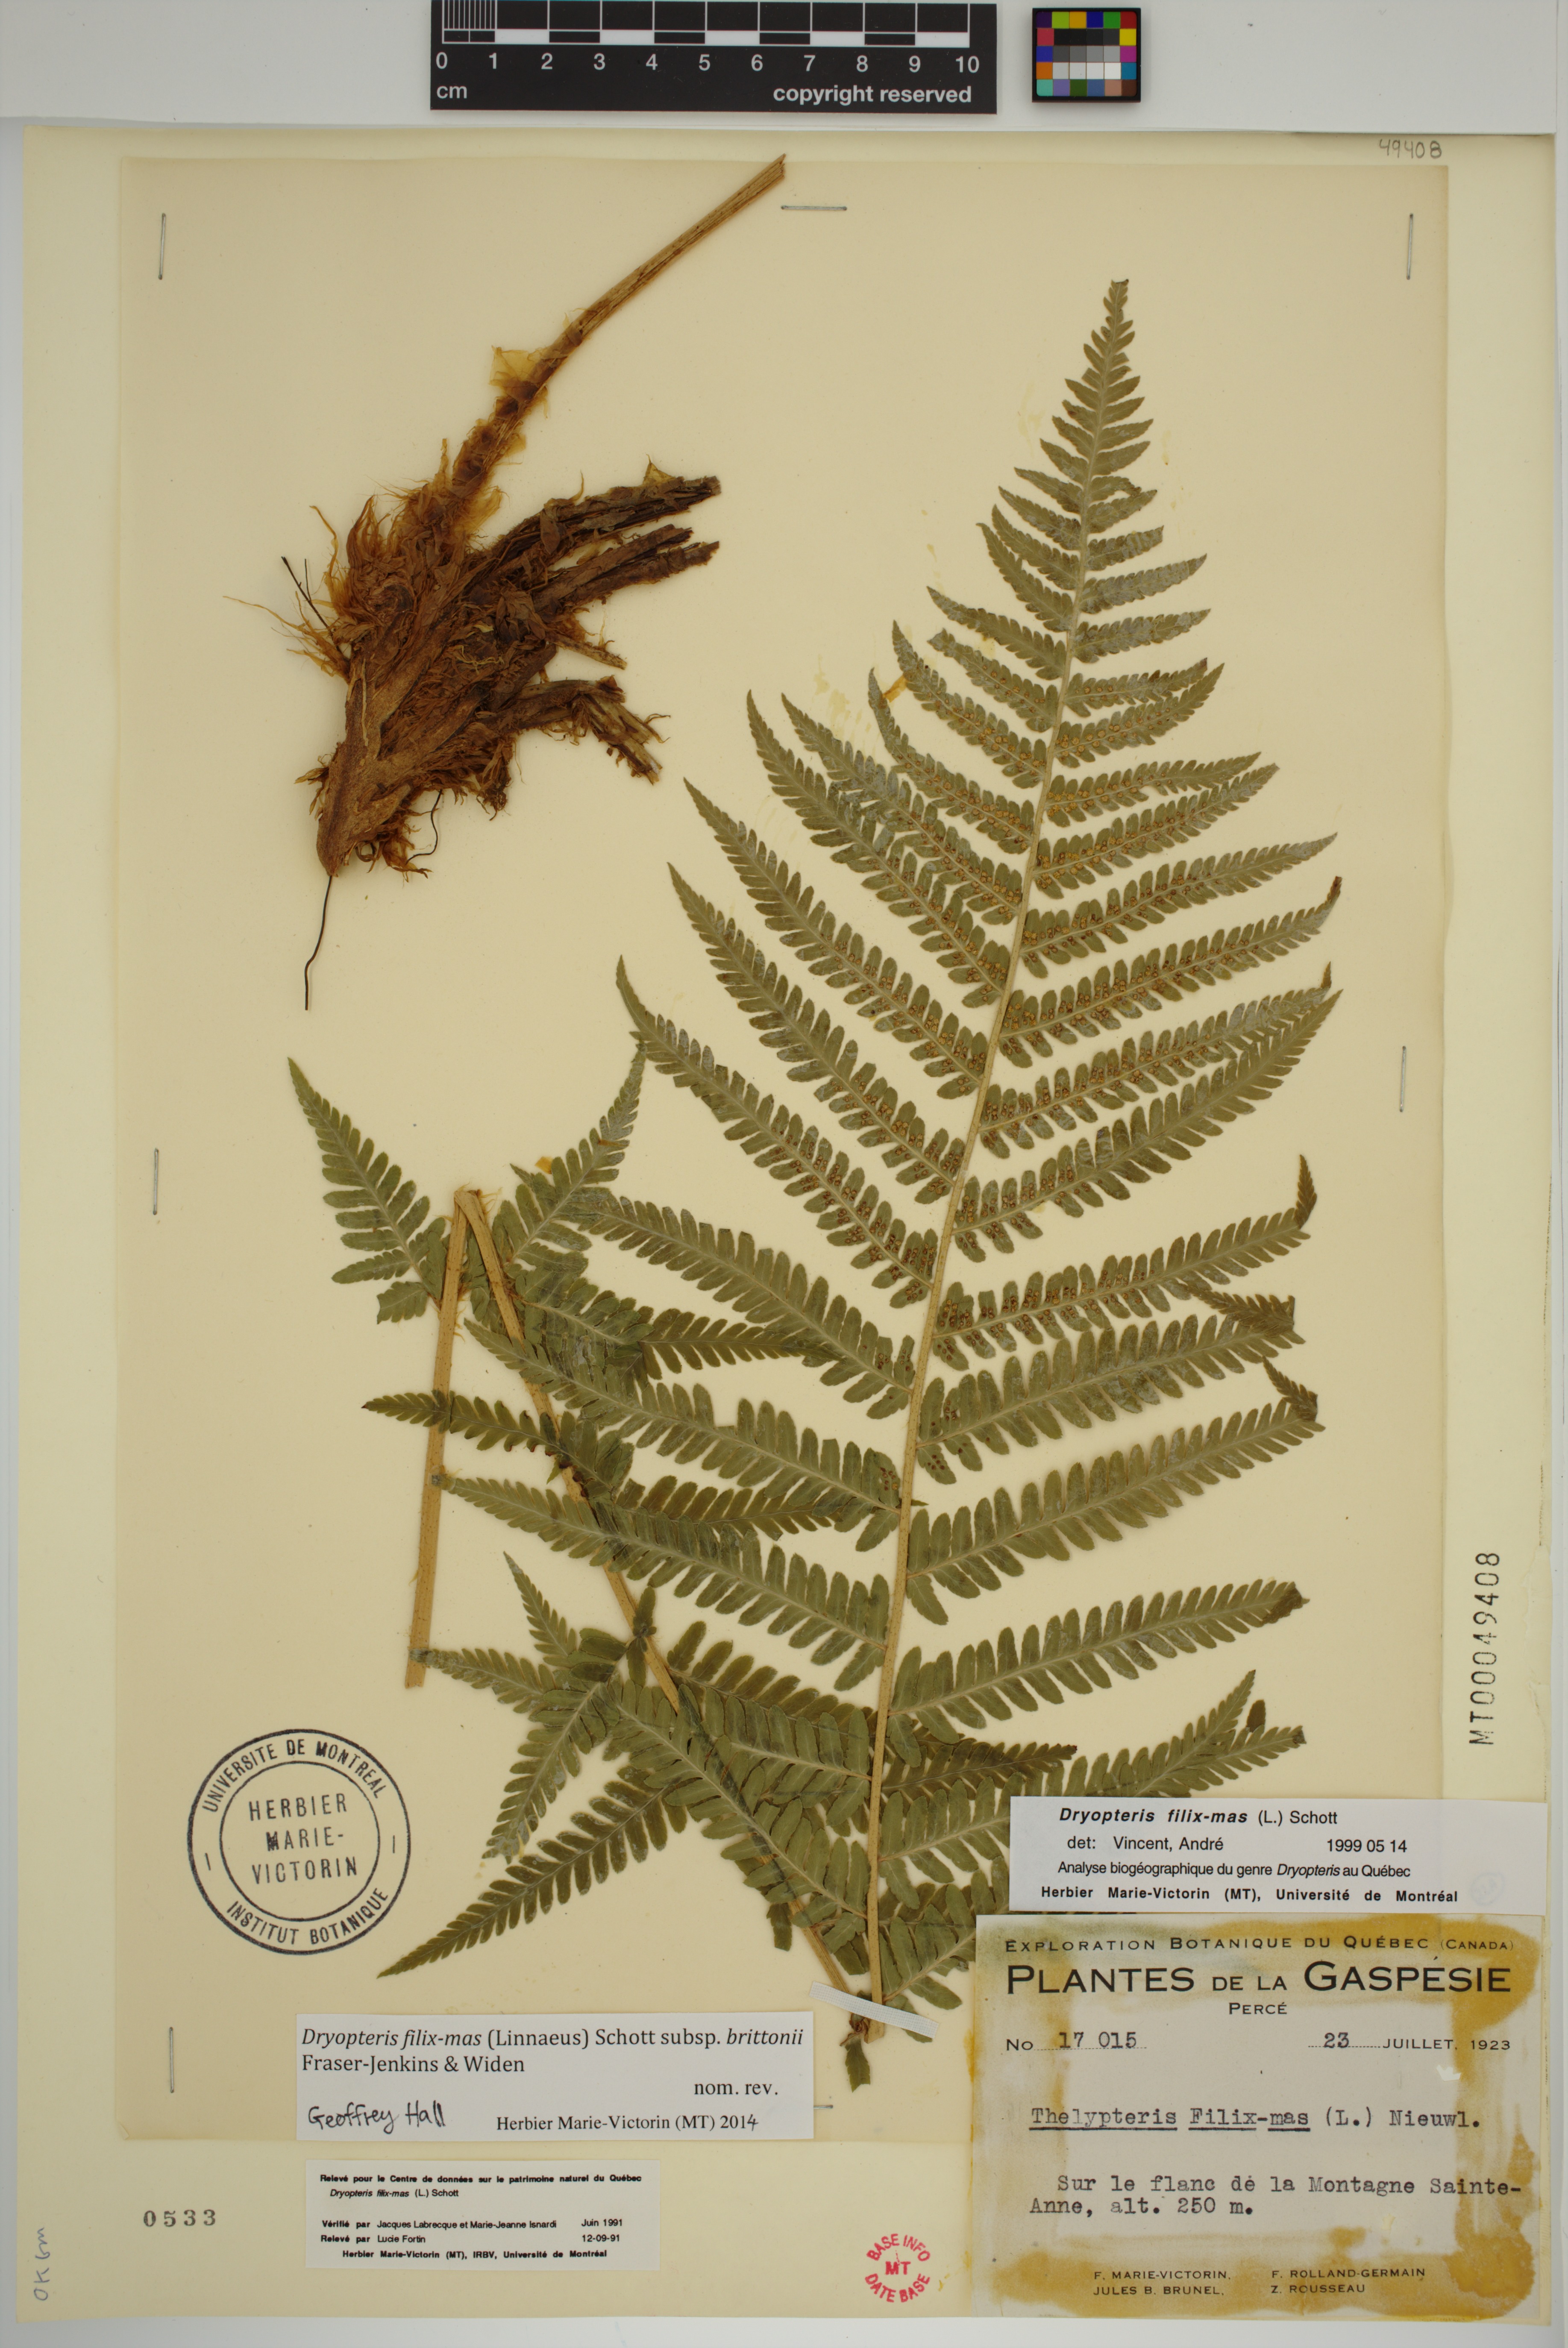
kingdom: Plantae
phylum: Tracheophyta
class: Polypodiopsida
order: Polypodiales
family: Dryopteridaceae
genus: Dryopteris
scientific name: Dryopteris filix-mas
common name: Male fern
